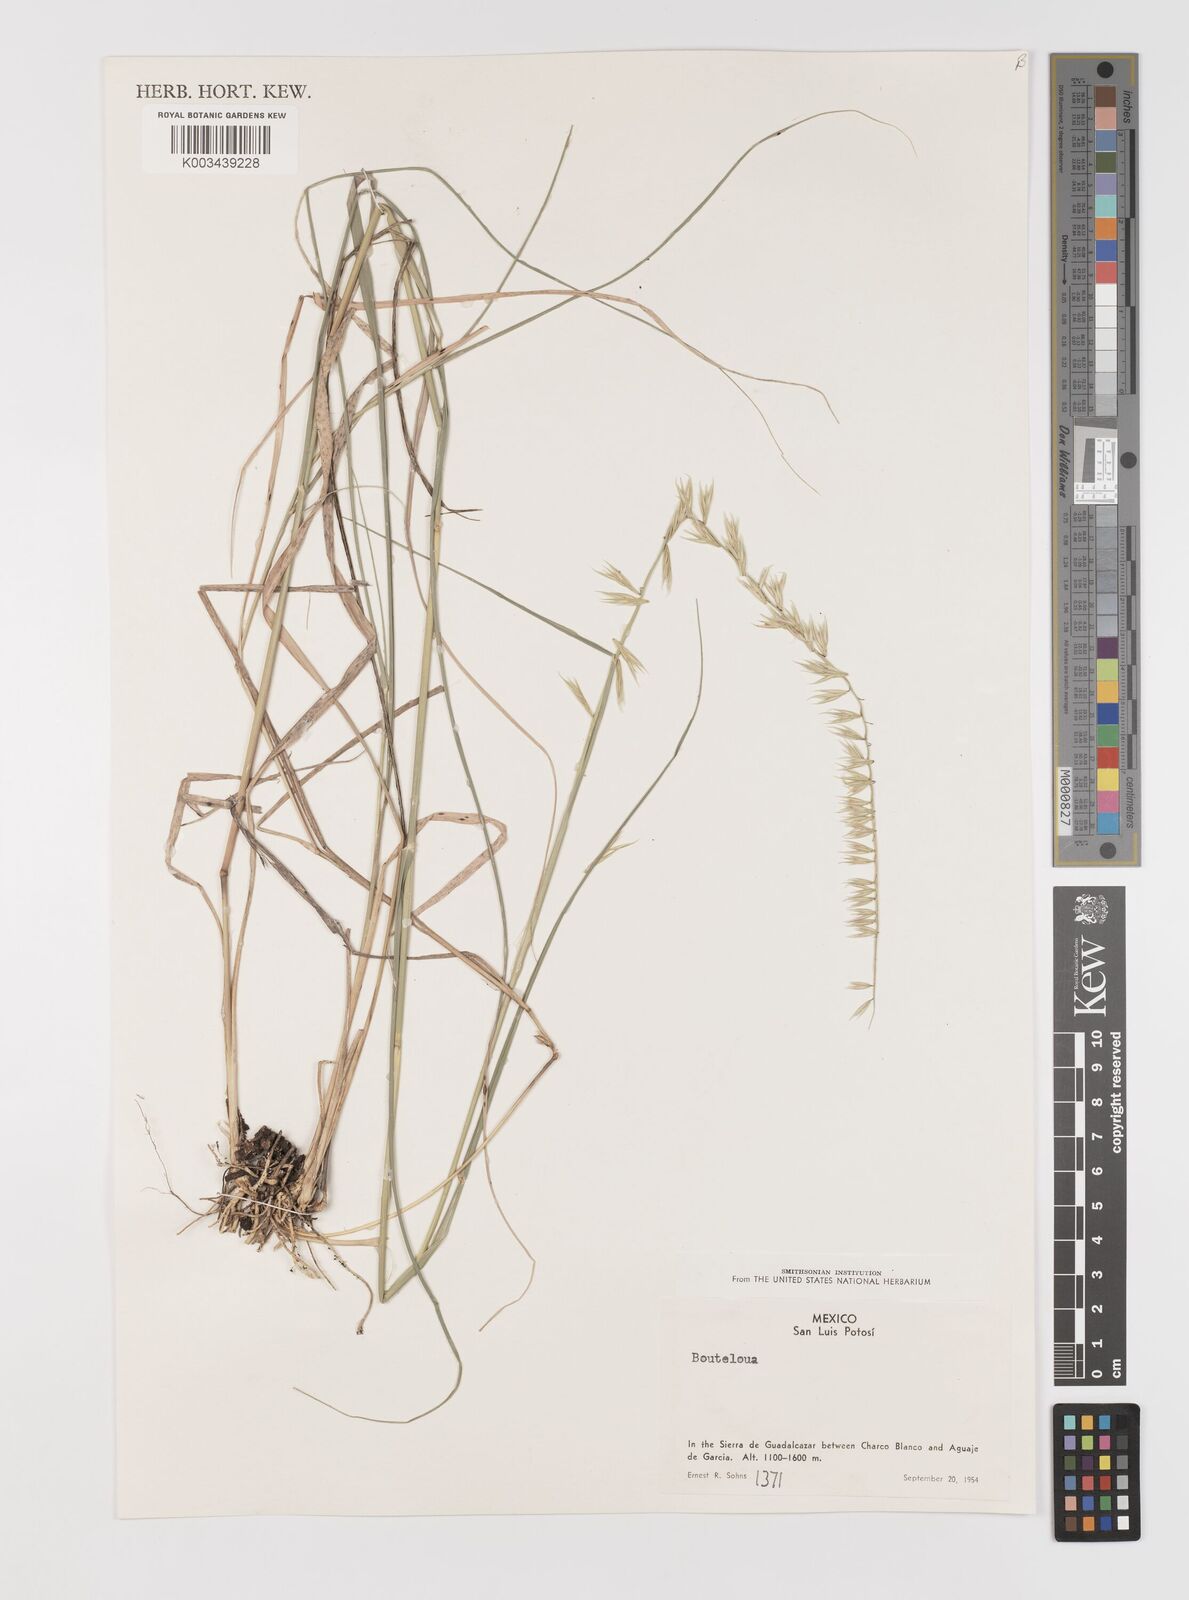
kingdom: Plantae
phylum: Tracheophyta
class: Liliopsida
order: Poales
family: Poaceae
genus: Bouteloua
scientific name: Bouteloua curtipendula
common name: Side-oats grama
